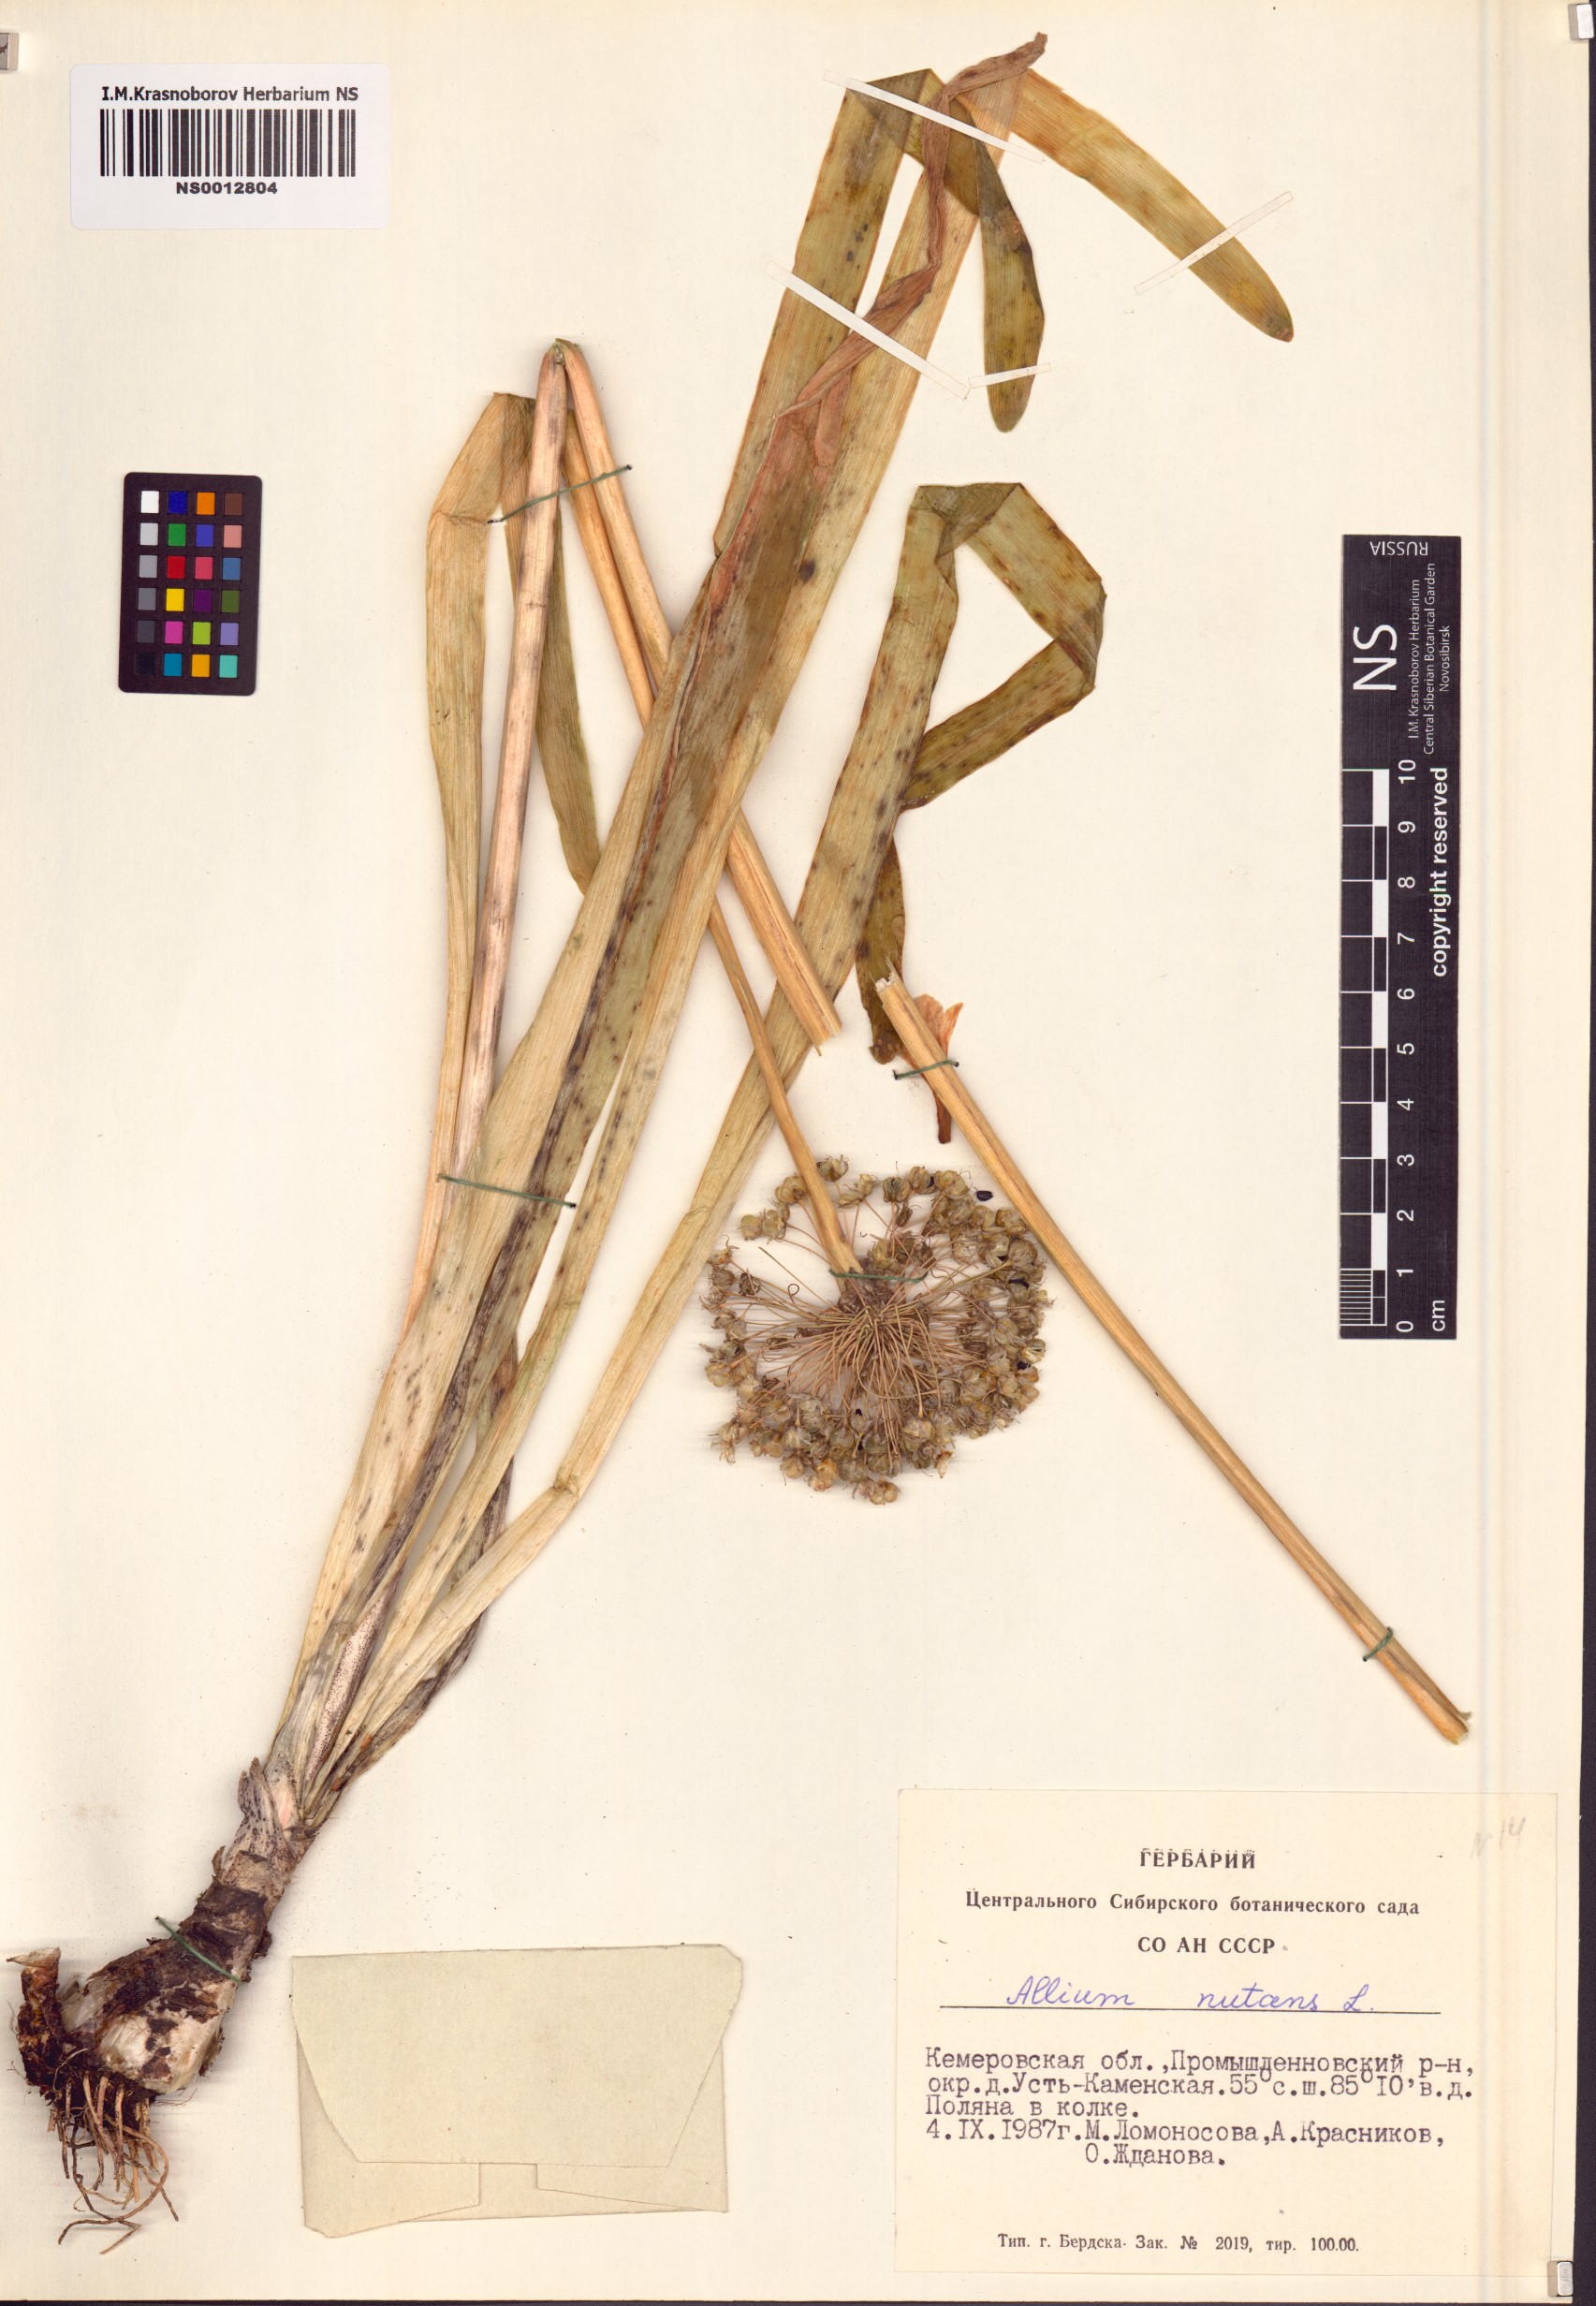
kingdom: Plantae
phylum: Tracheophyta
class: Liliopsida
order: Asparagales
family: Amaryllidaceae
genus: Allium
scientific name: Allium nutans
